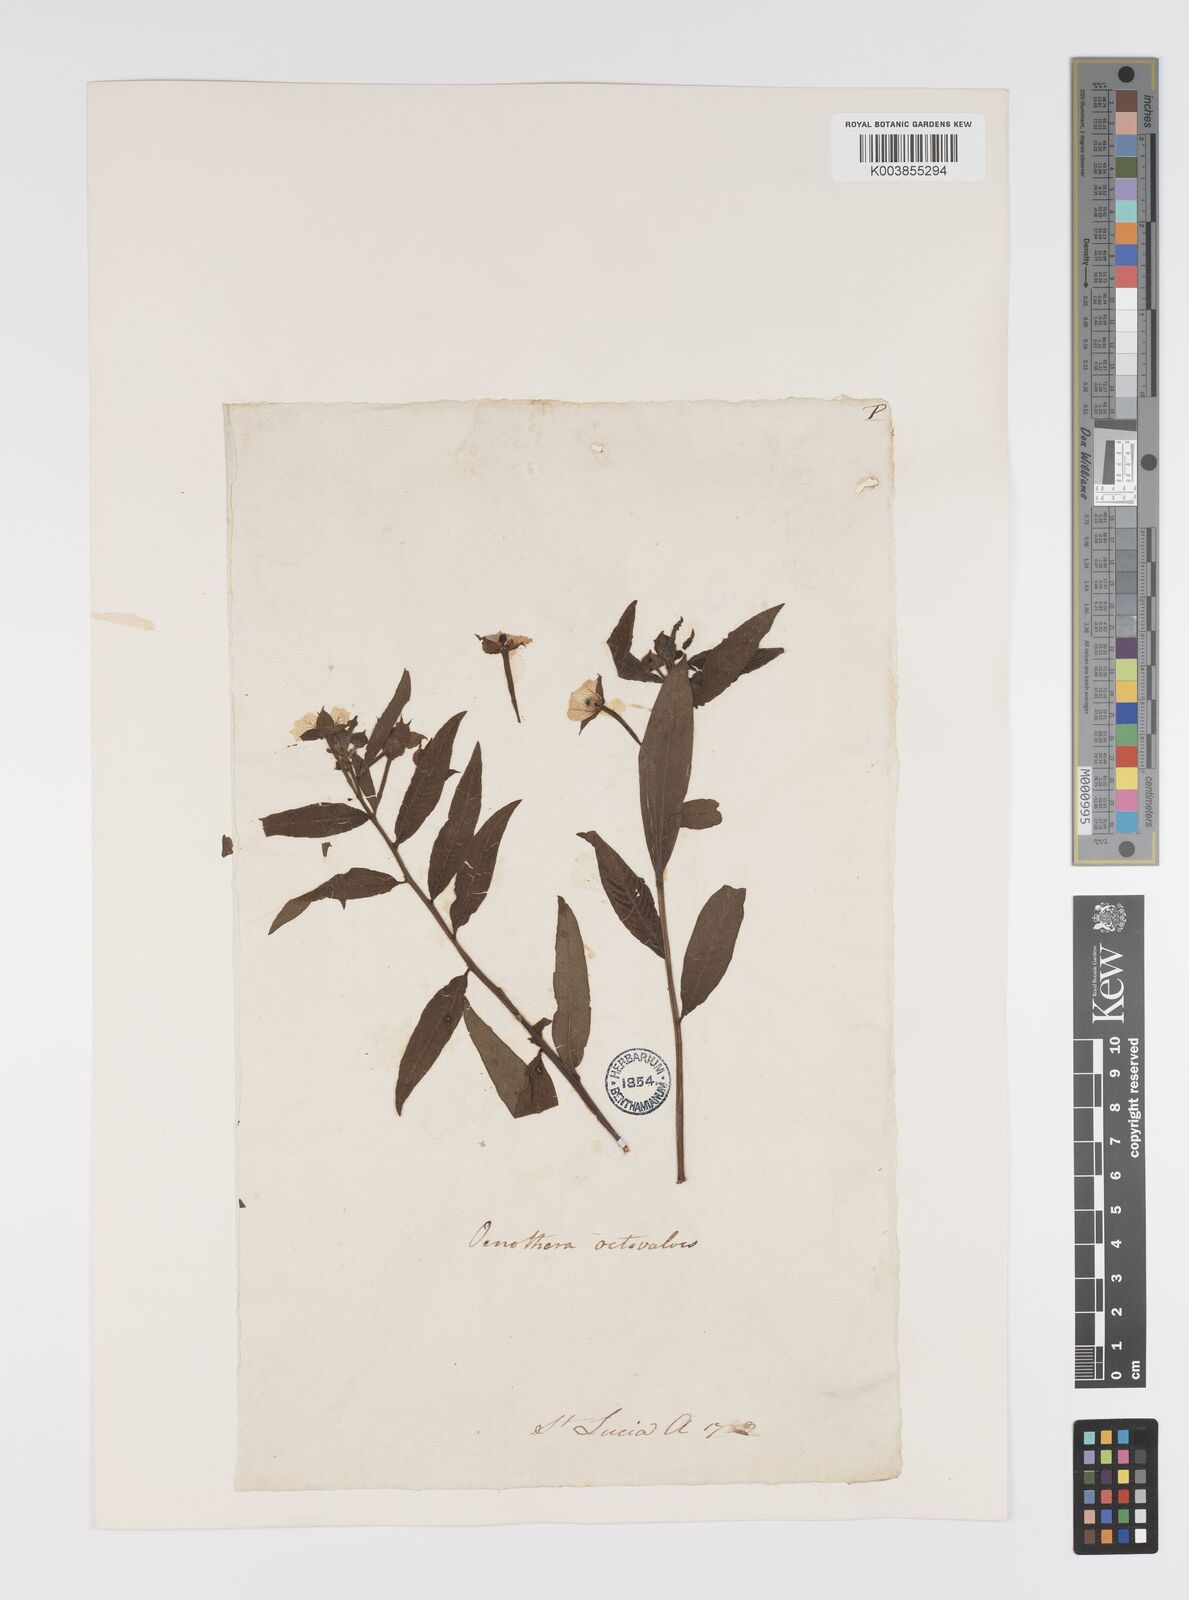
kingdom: Plantae
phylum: Tracheophyta
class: Magnoliopsida
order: Myrtales
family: Onagraceae
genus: Ludwigia
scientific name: Ludwigia octovalvis
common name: Water-primrose
